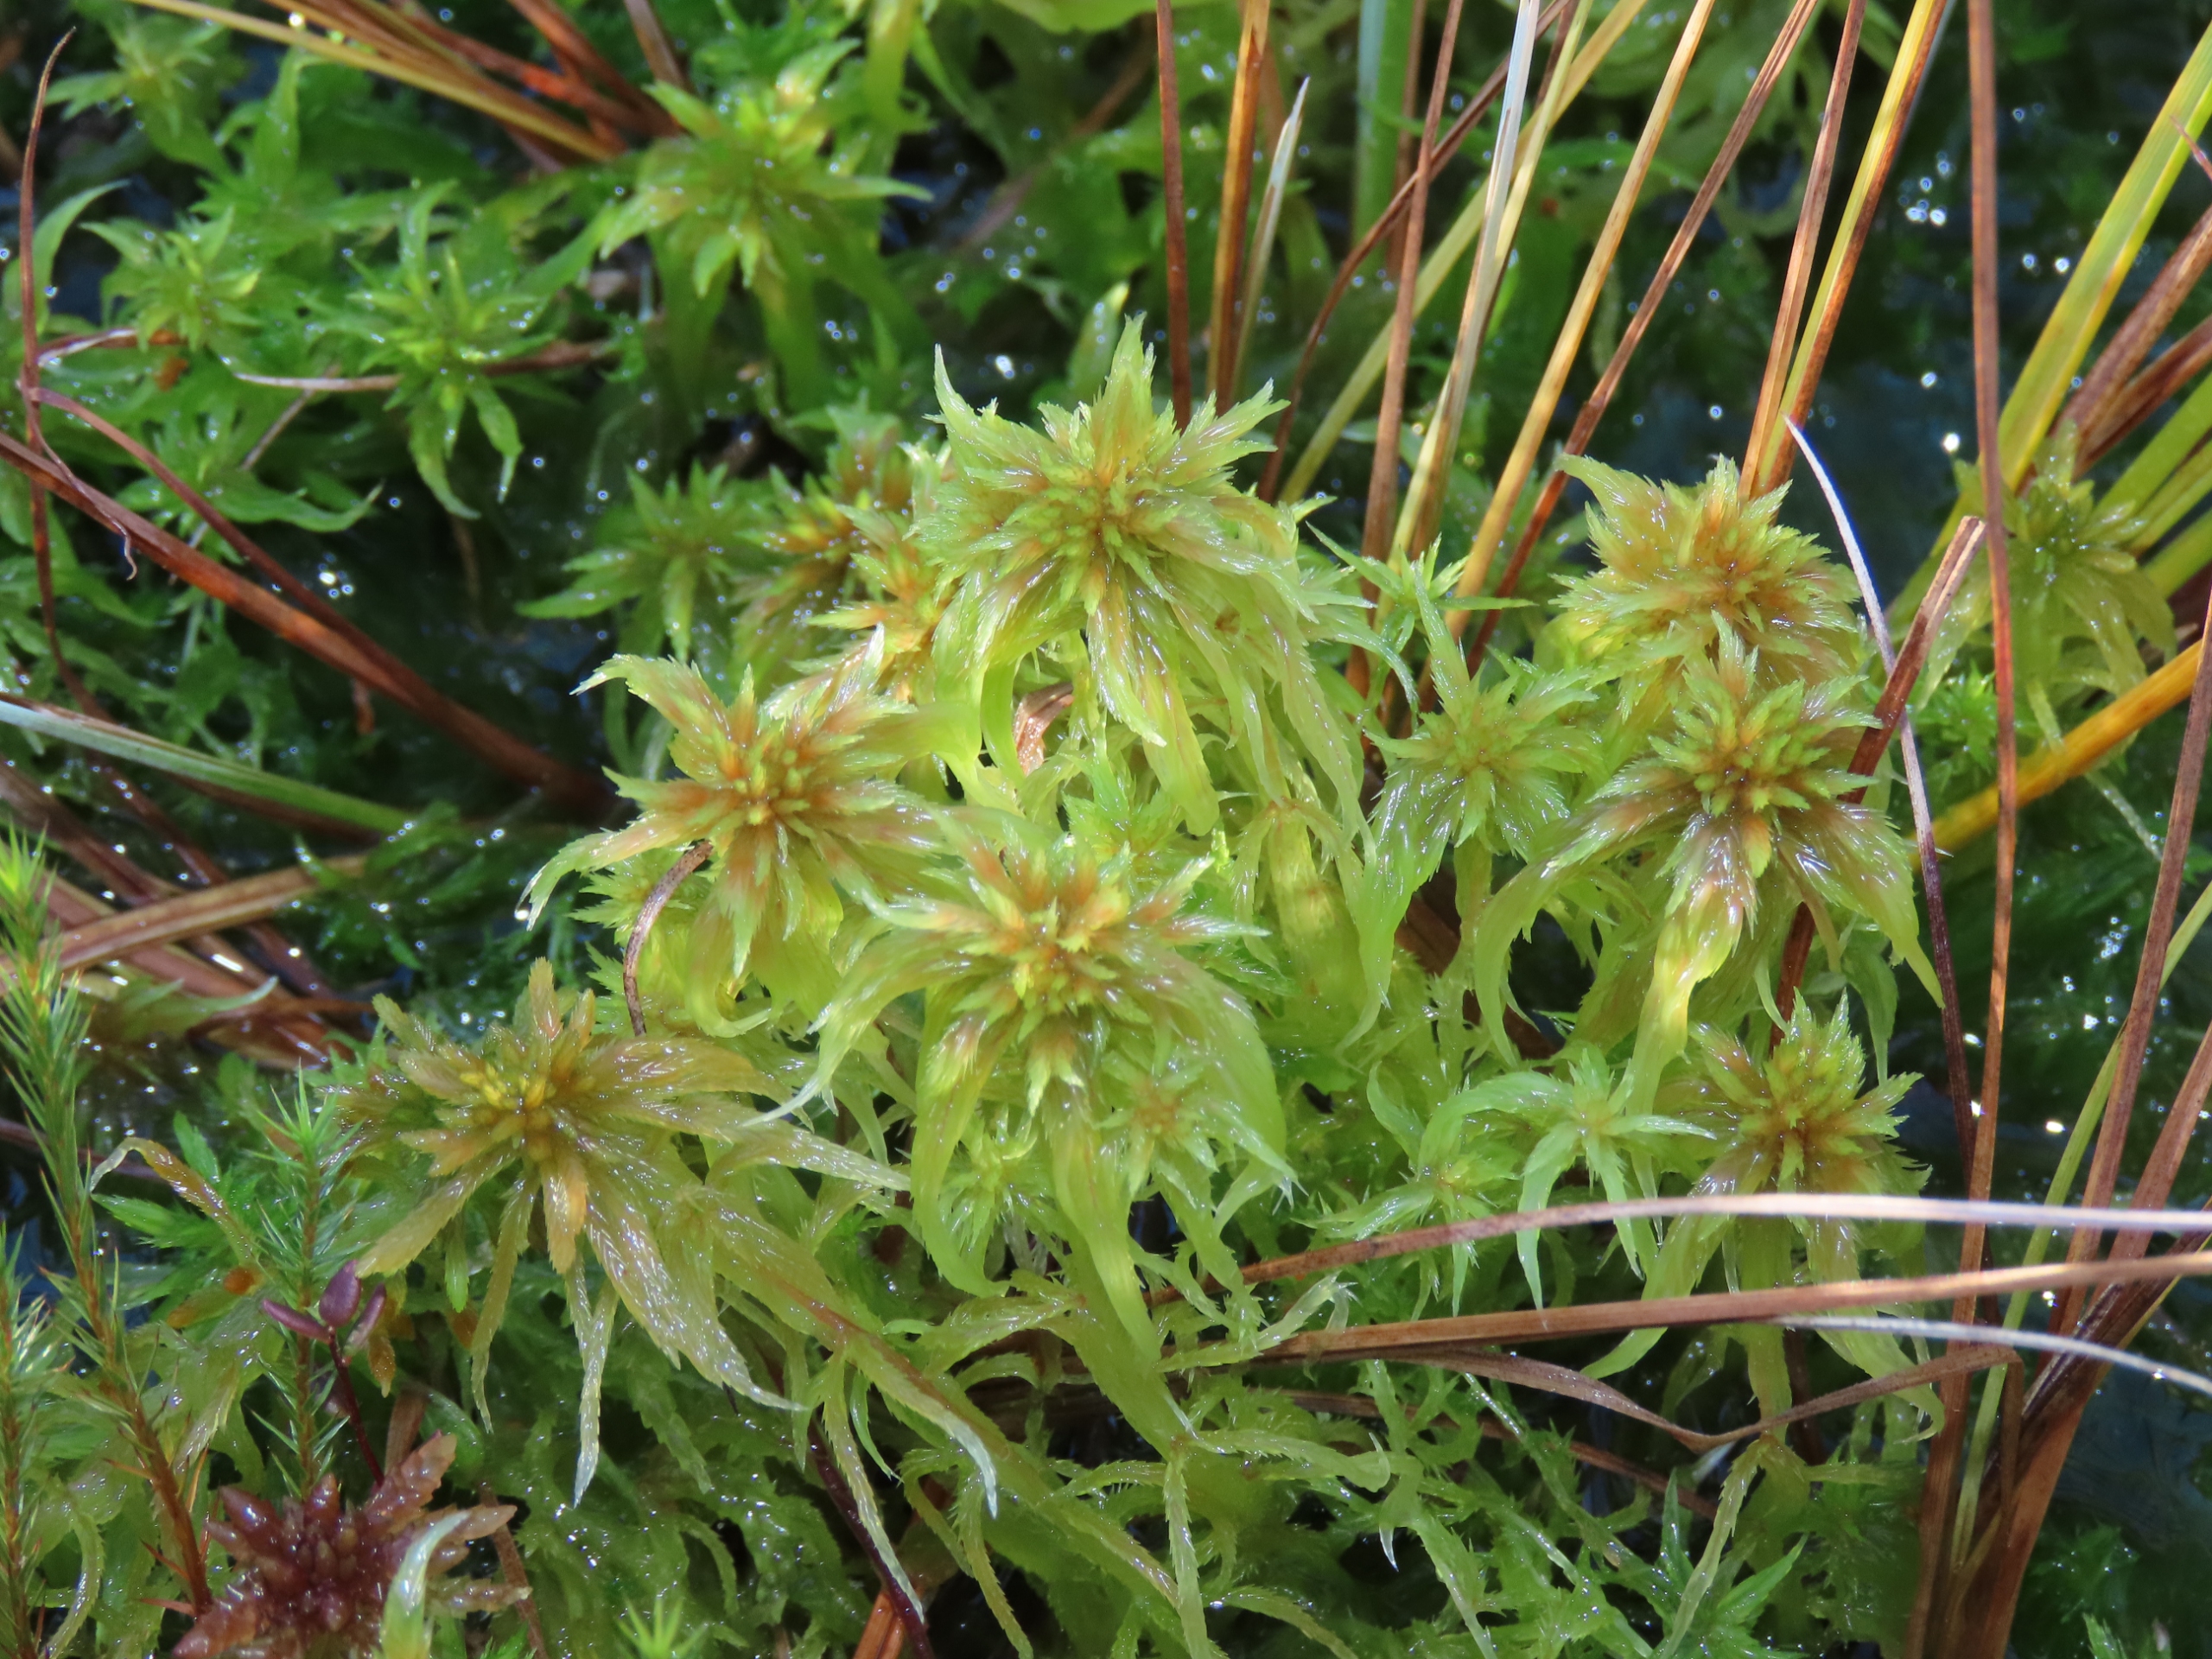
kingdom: Plantae
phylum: Bryophyta
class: Sphagnopsida
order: Sphagnales
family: Sphagnaceae
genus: Sphagnum
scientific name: Sphagnum cuspidatum
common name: Pjusket tørvemos
